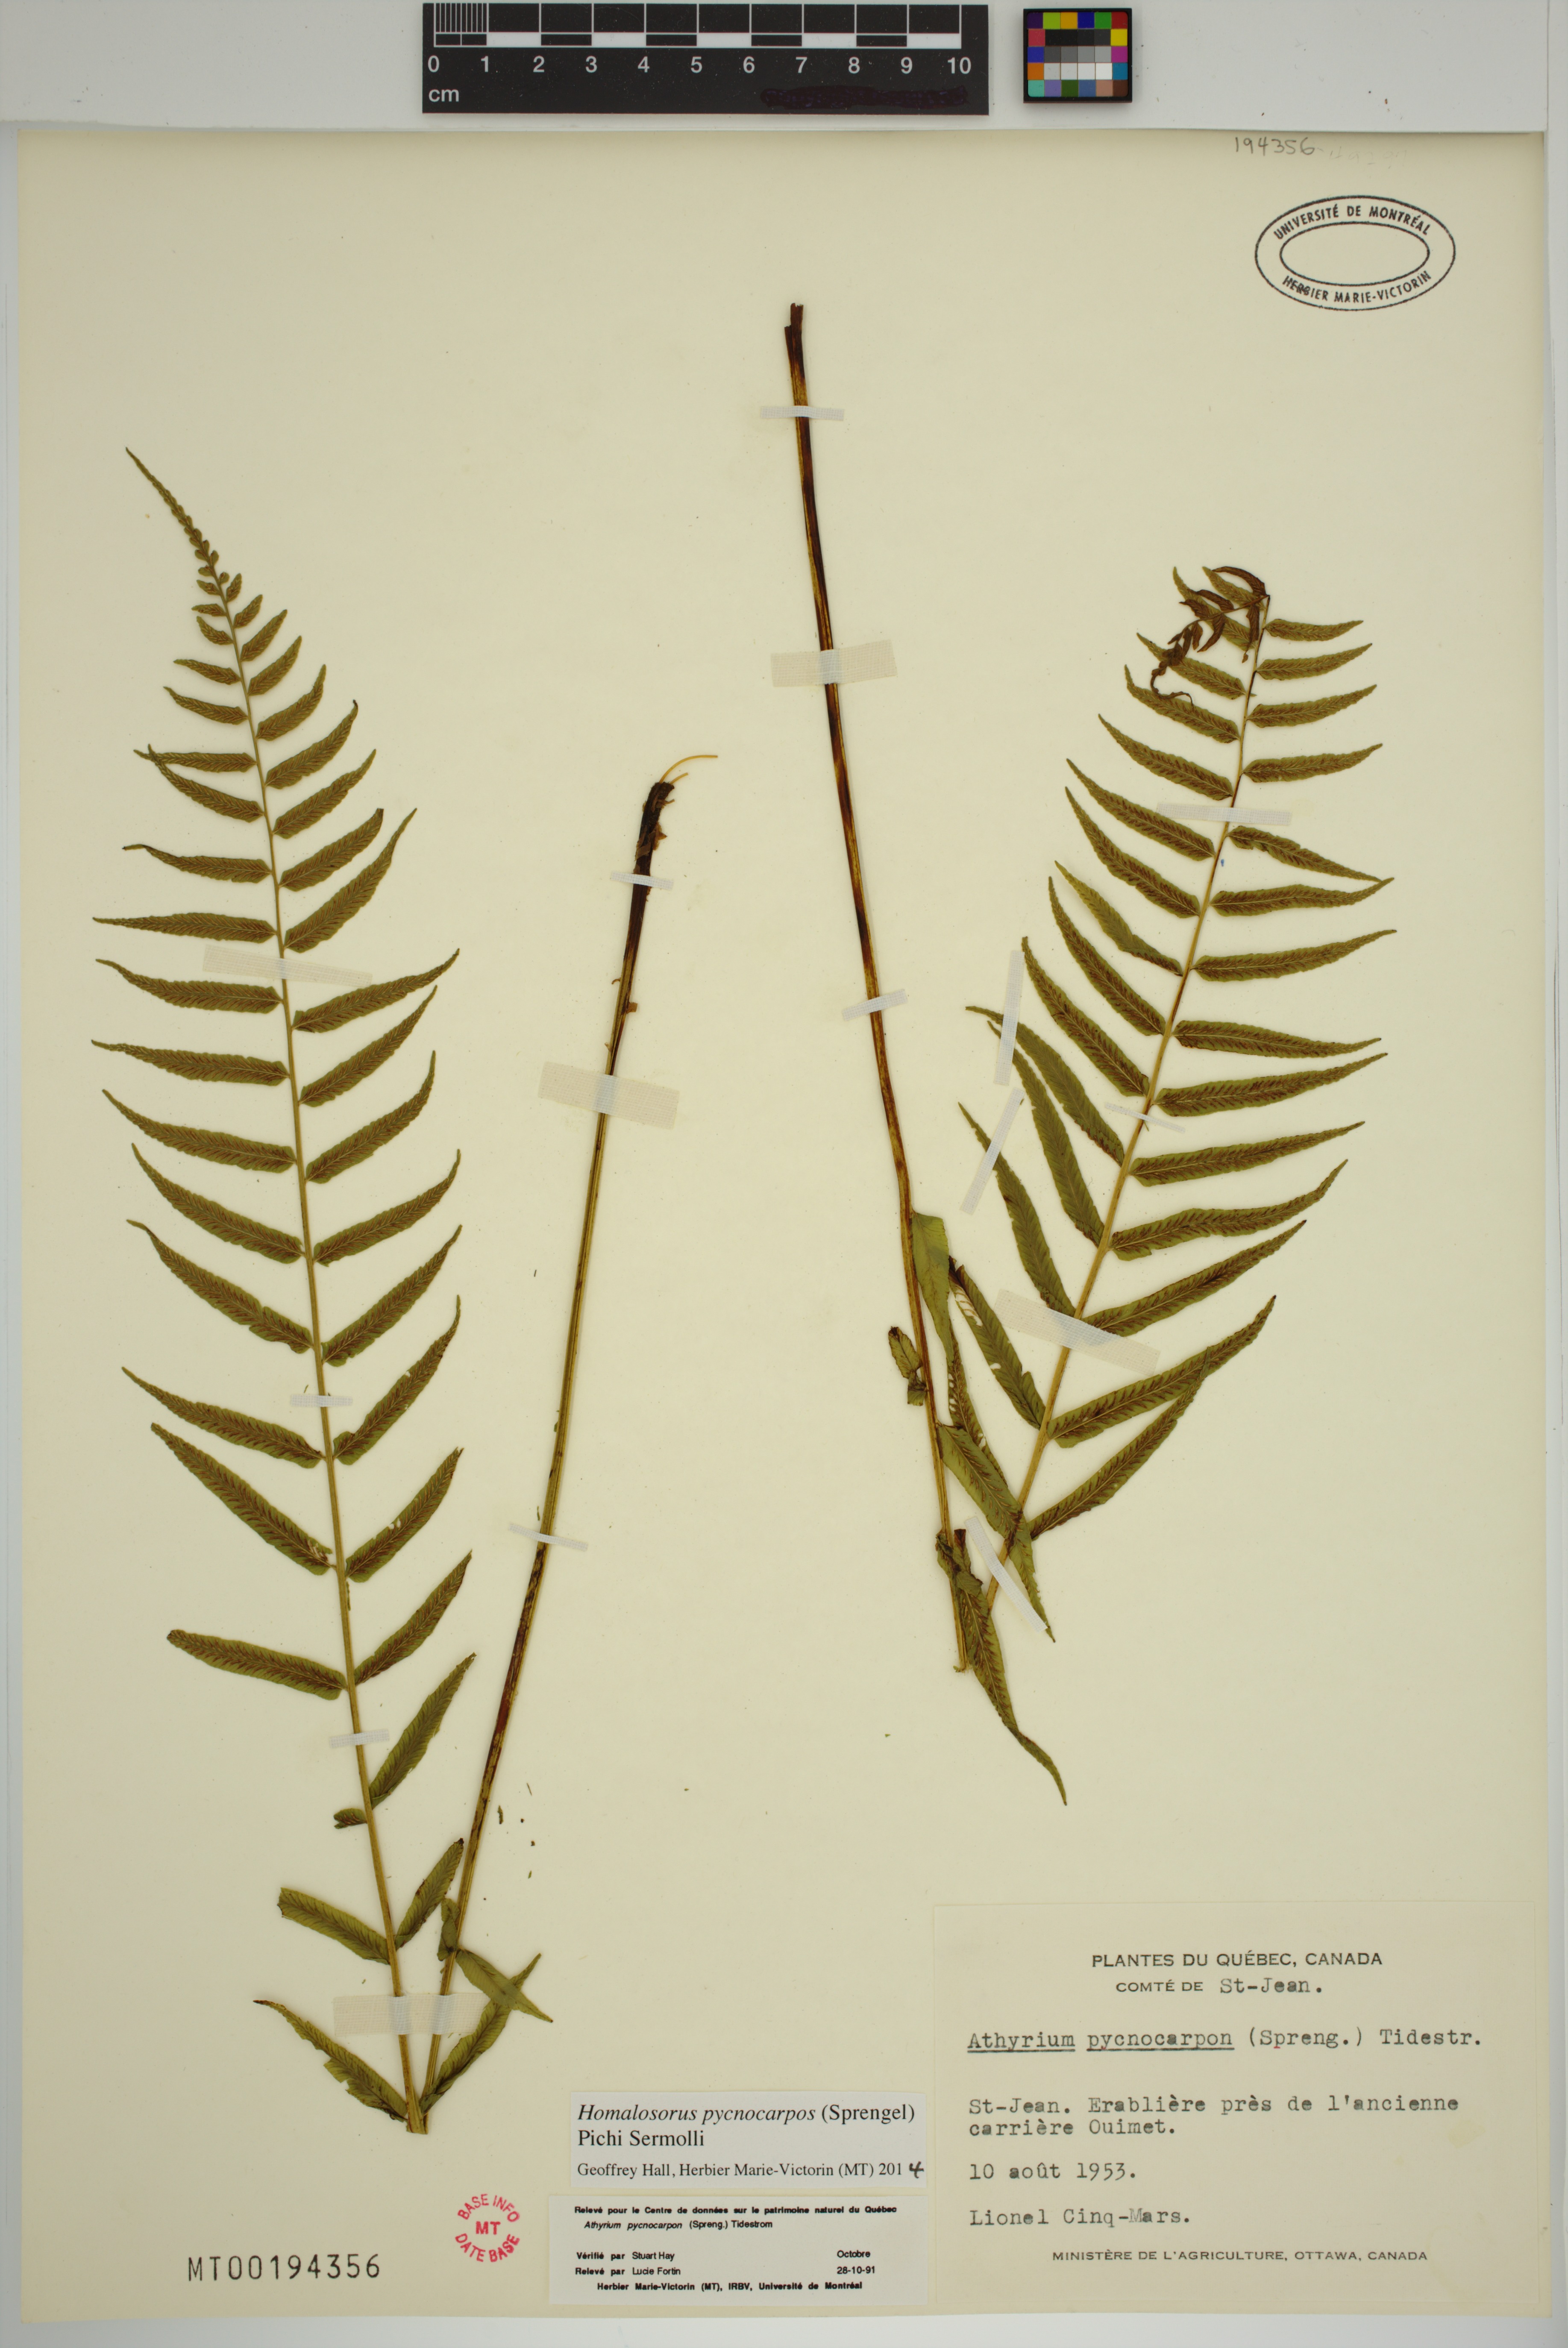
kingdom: Plantae
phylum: Tracheophyta
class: Polypodiopsida
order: Polypodiales
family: Diplaziopsidaceae
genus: Homalosorus
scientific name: Homalosorus pycnocarpos
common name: Glade fern
